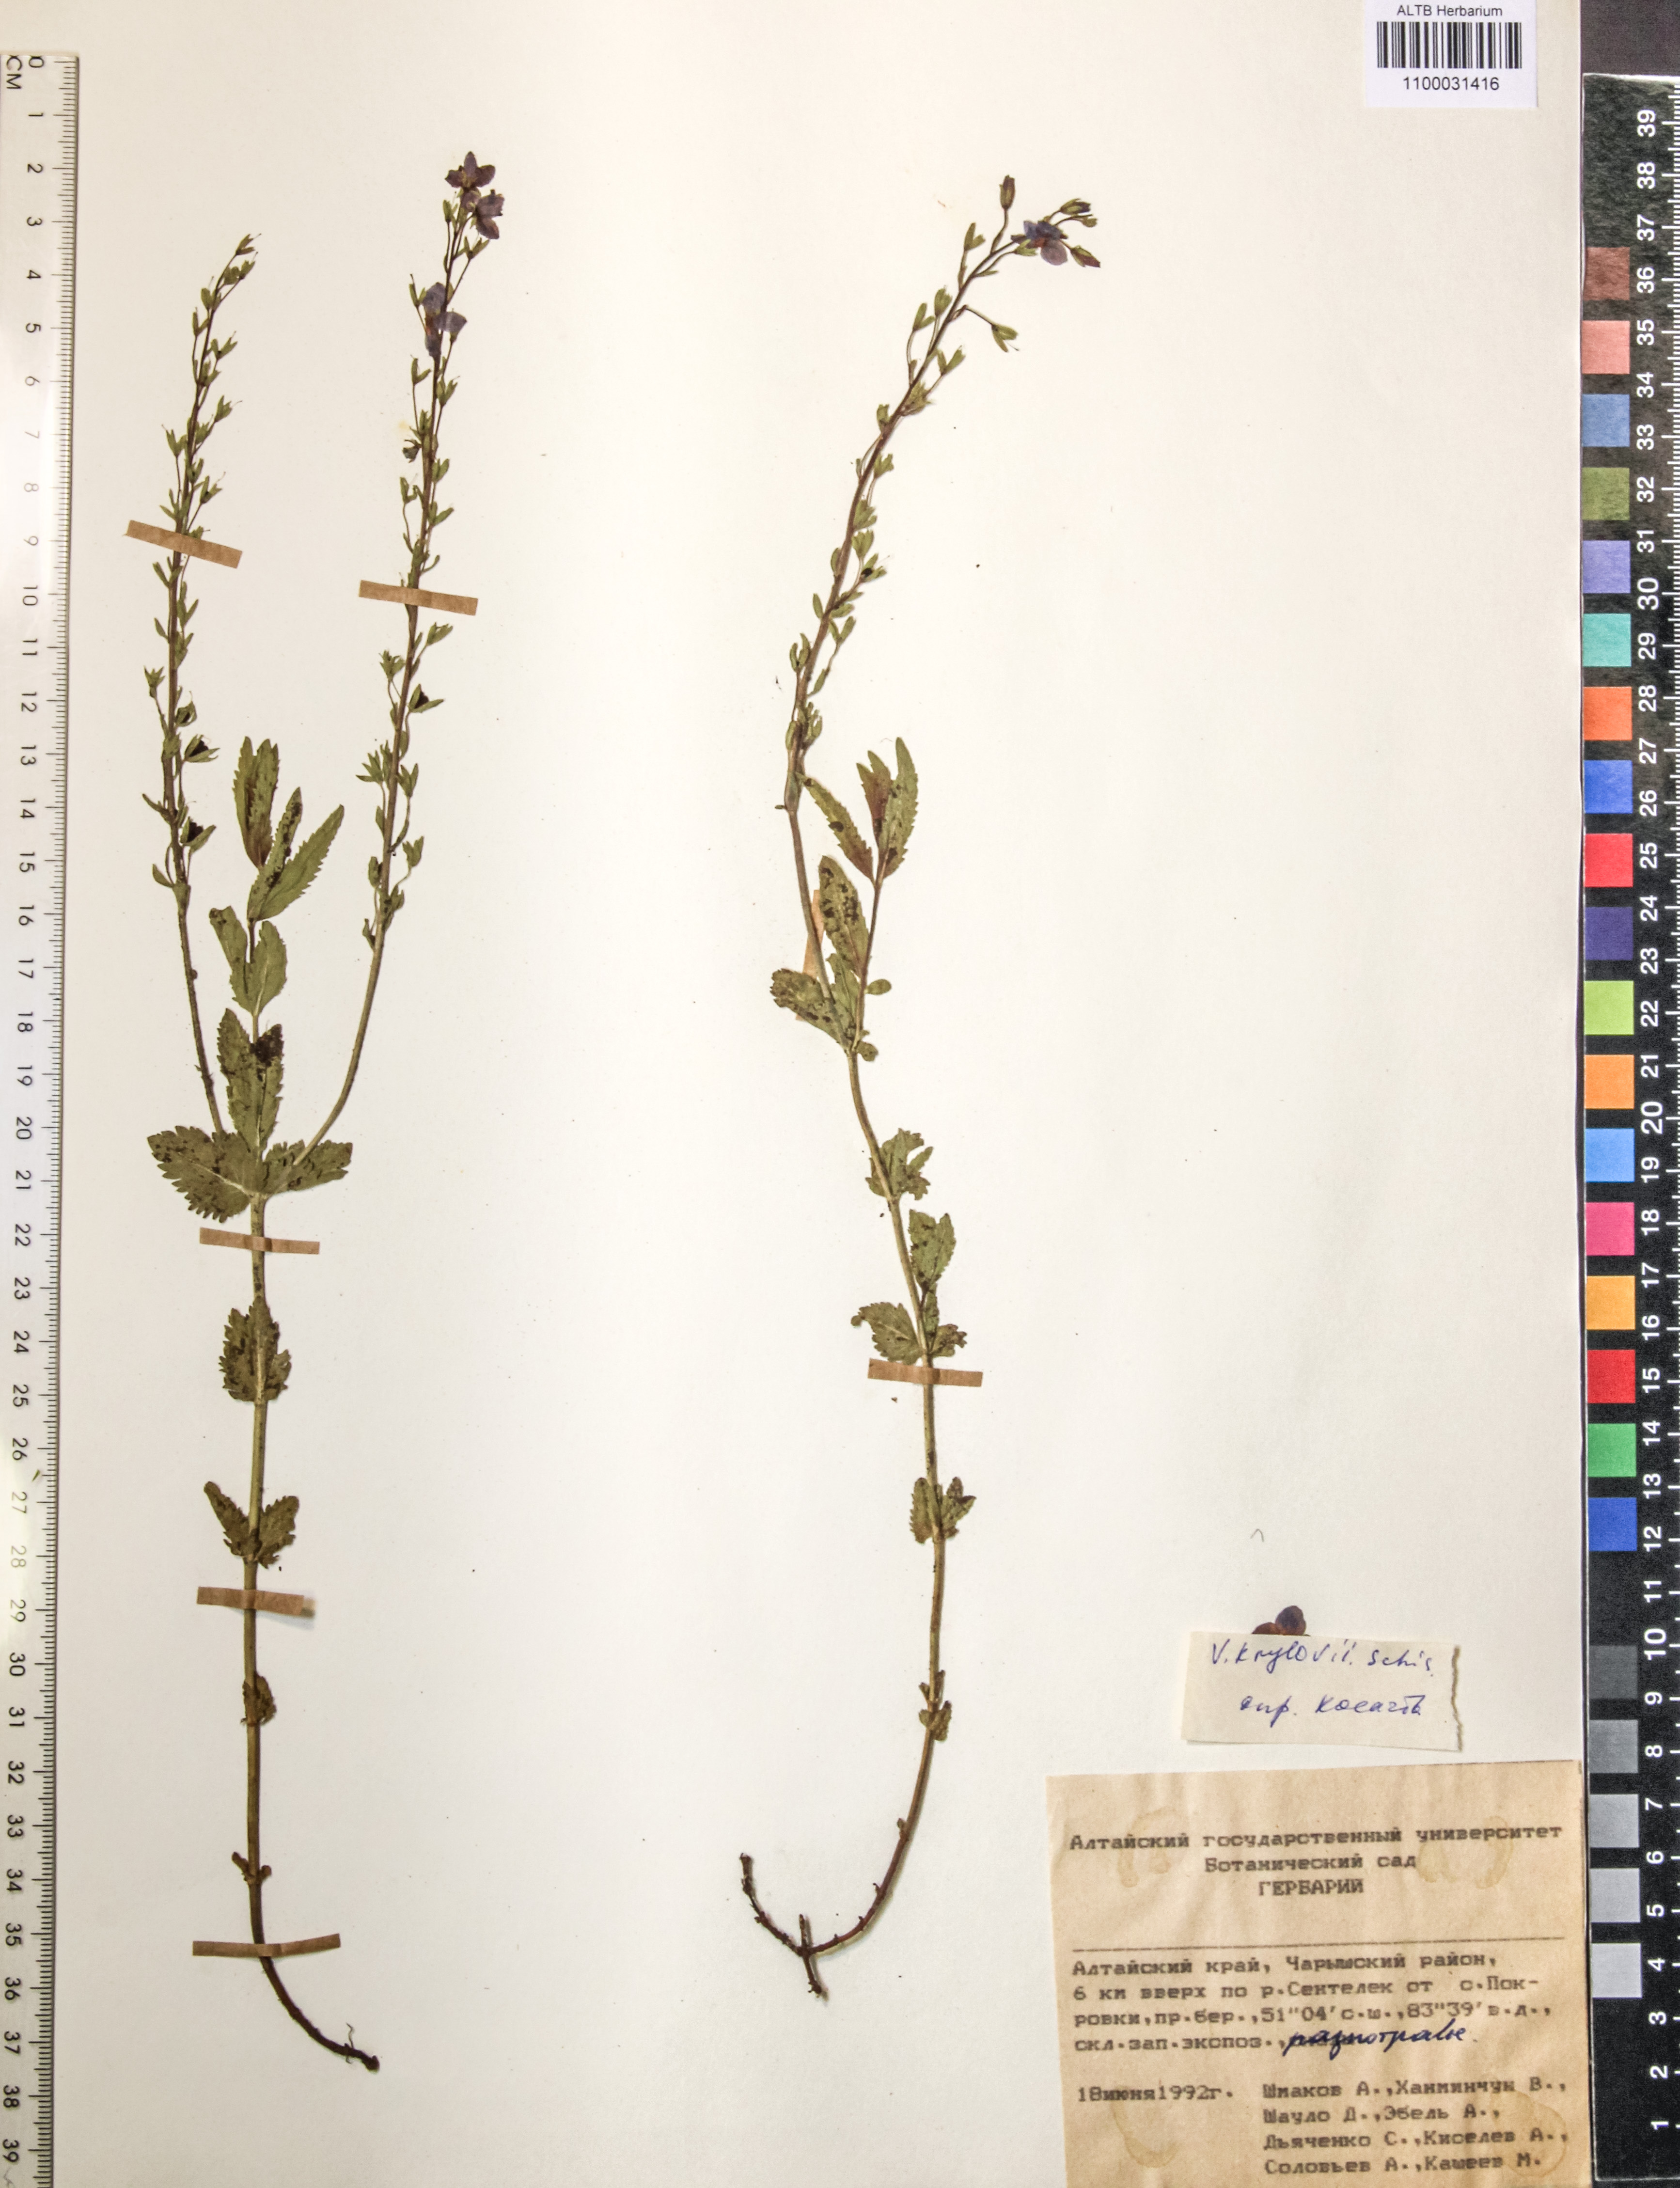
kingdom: Plantae
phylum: Tracheophyta
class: Magnoliopsida
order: Lamiales
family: Plantaginaceae
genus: Veronica
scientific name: Veronica krylovii
